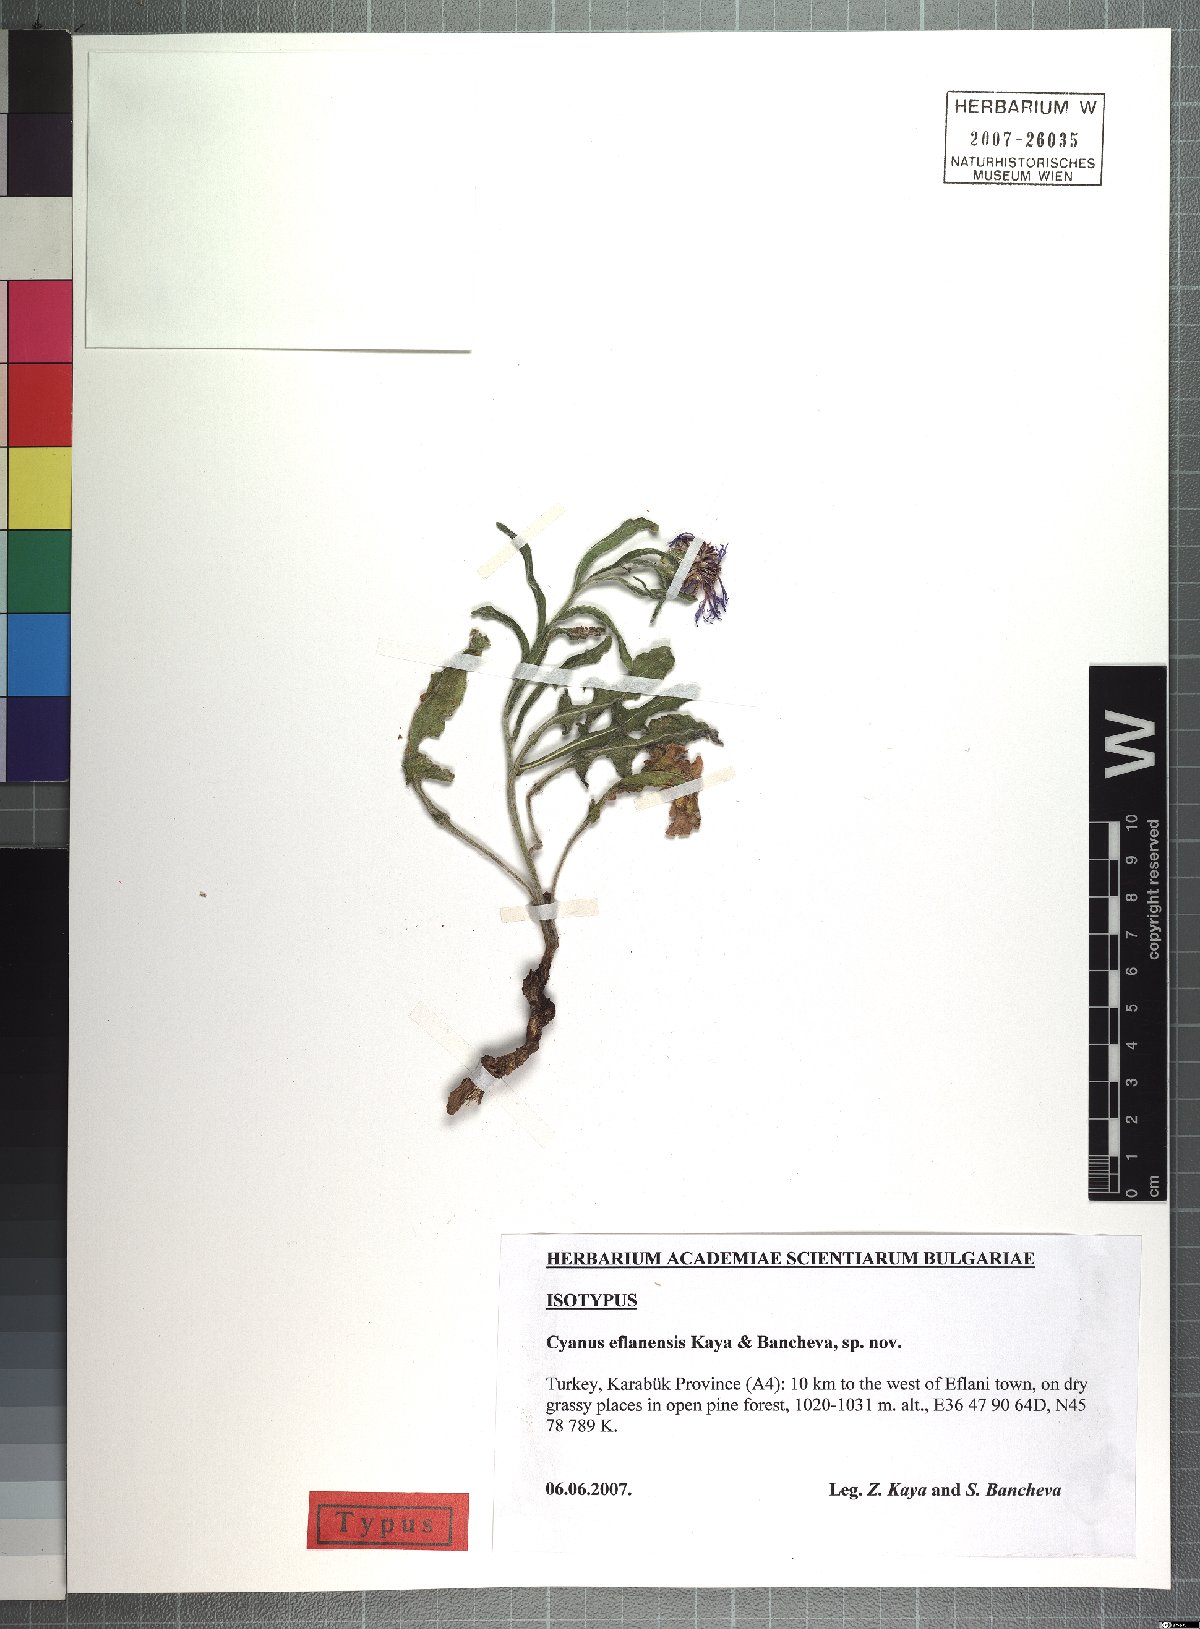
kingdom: Plantae
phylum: Tracheophyta
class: Magnoliopsida
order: Asterales
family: Asteraceae
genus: Centaurea
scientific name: Centaurea eflanensis
